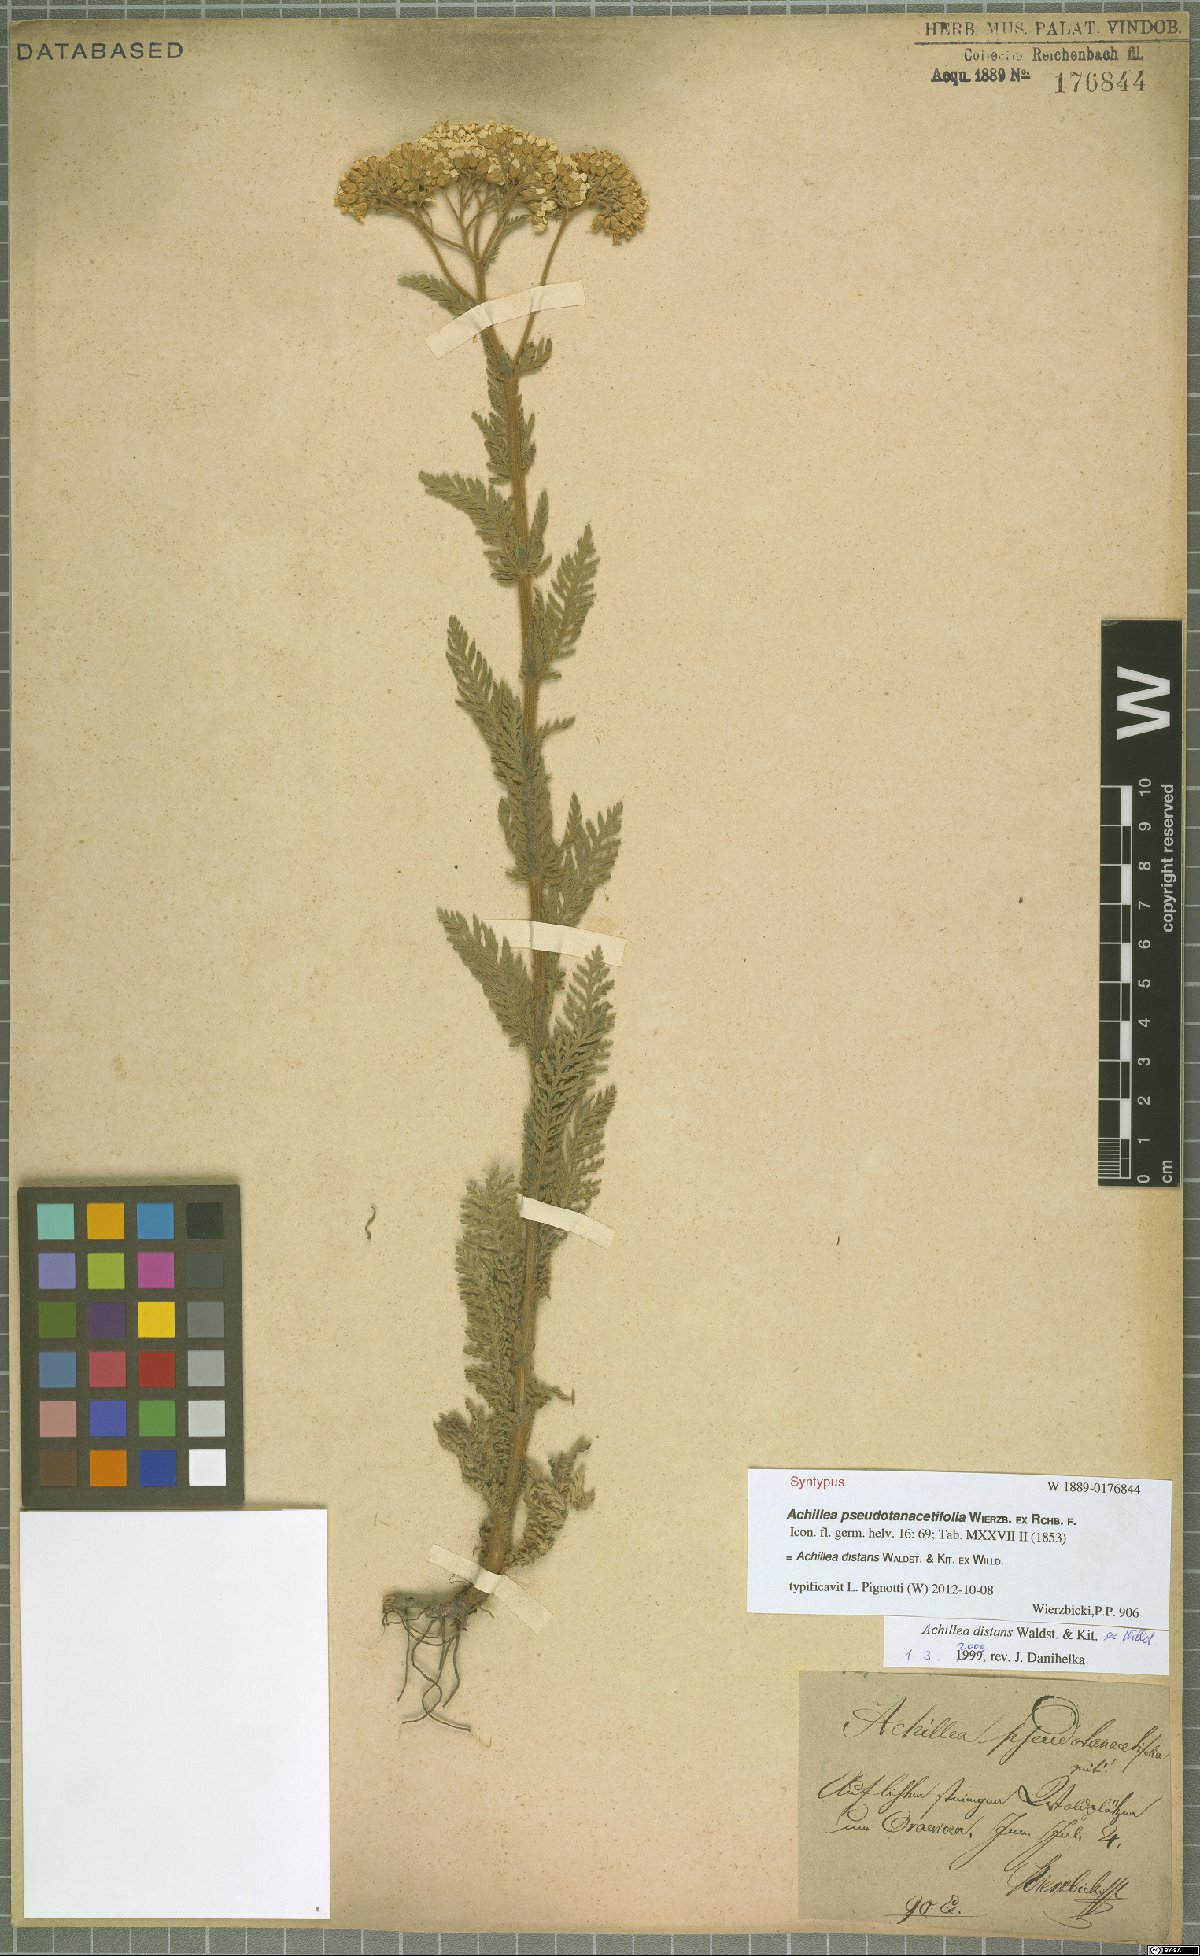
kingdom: Plantae
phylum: Tracheophyta
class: Magnoliopsida
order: Asterales
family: Asteraceae
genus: Achillea
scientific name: Achillea distans
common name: Tall yarrow
